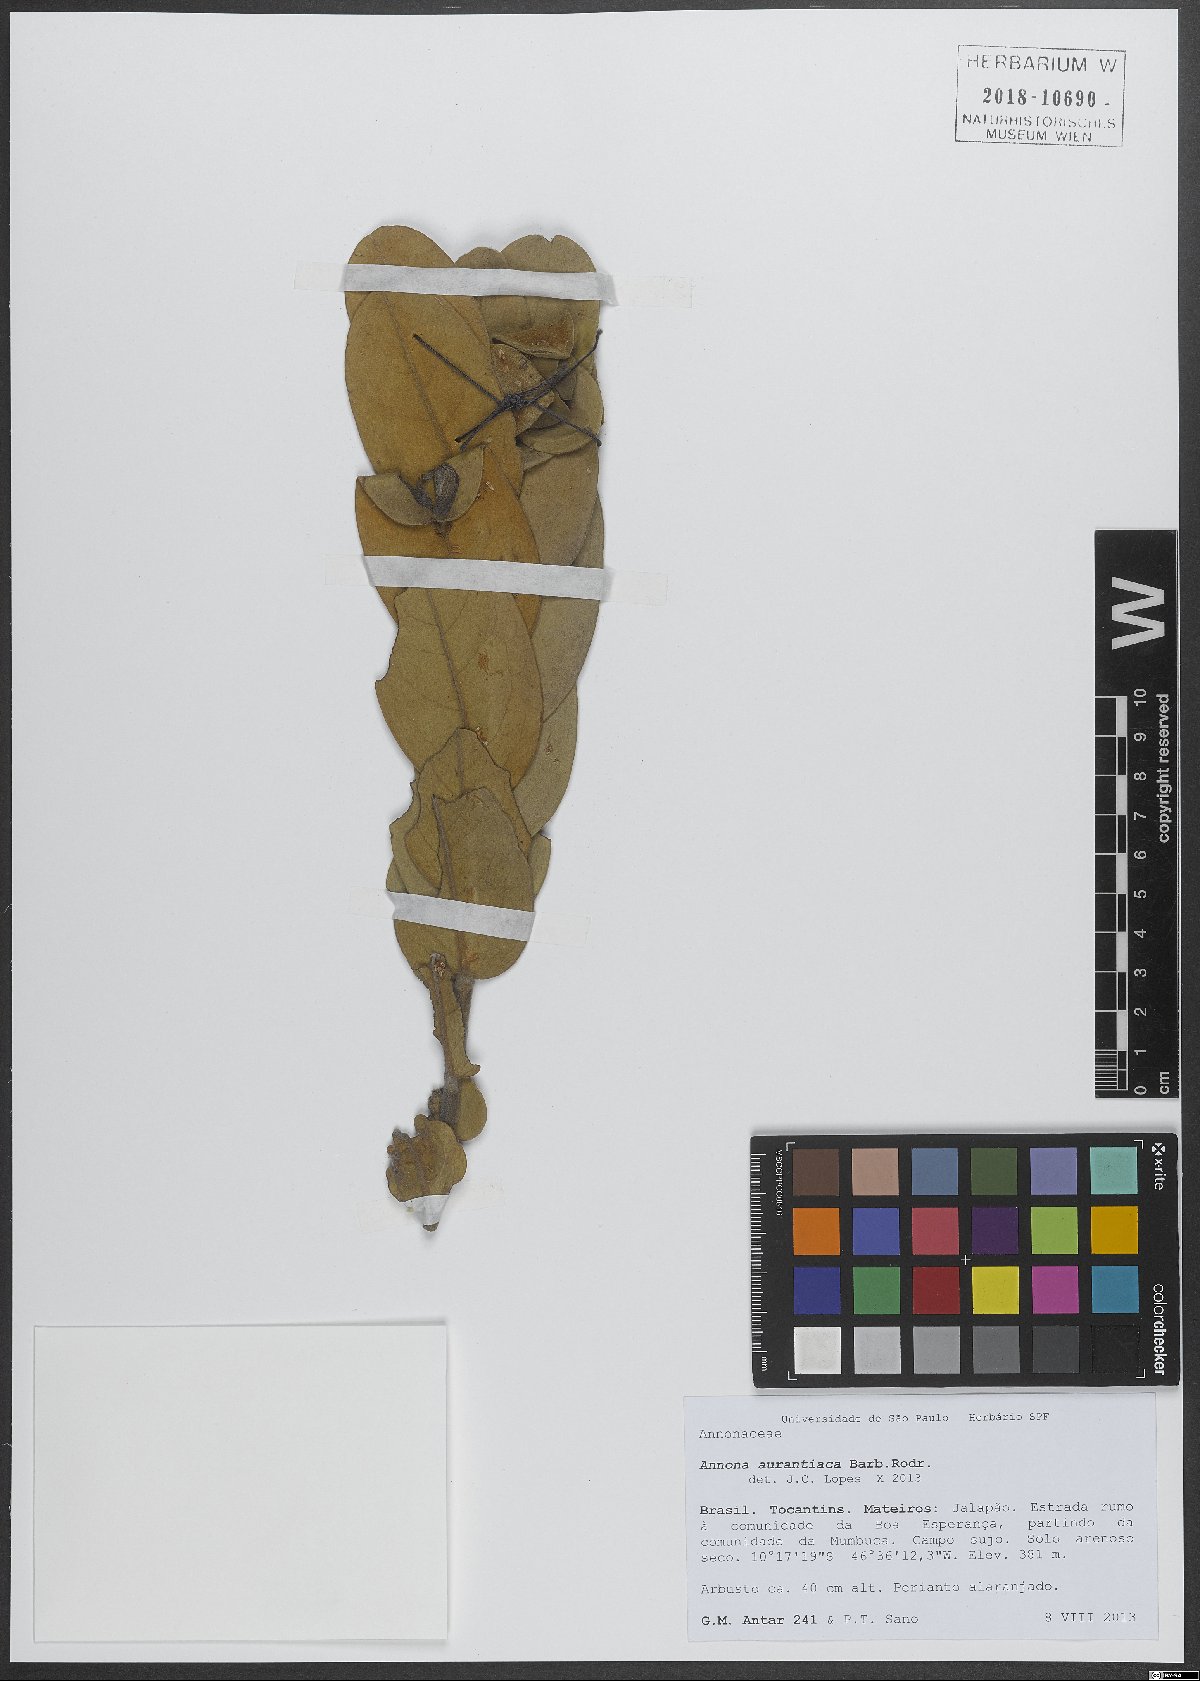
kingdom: Plantae
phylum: Tracheophyta
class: Magnoliopsida
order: Magnoliales
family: Annonaceae
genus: Annona
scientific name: Annona aurantiaca
